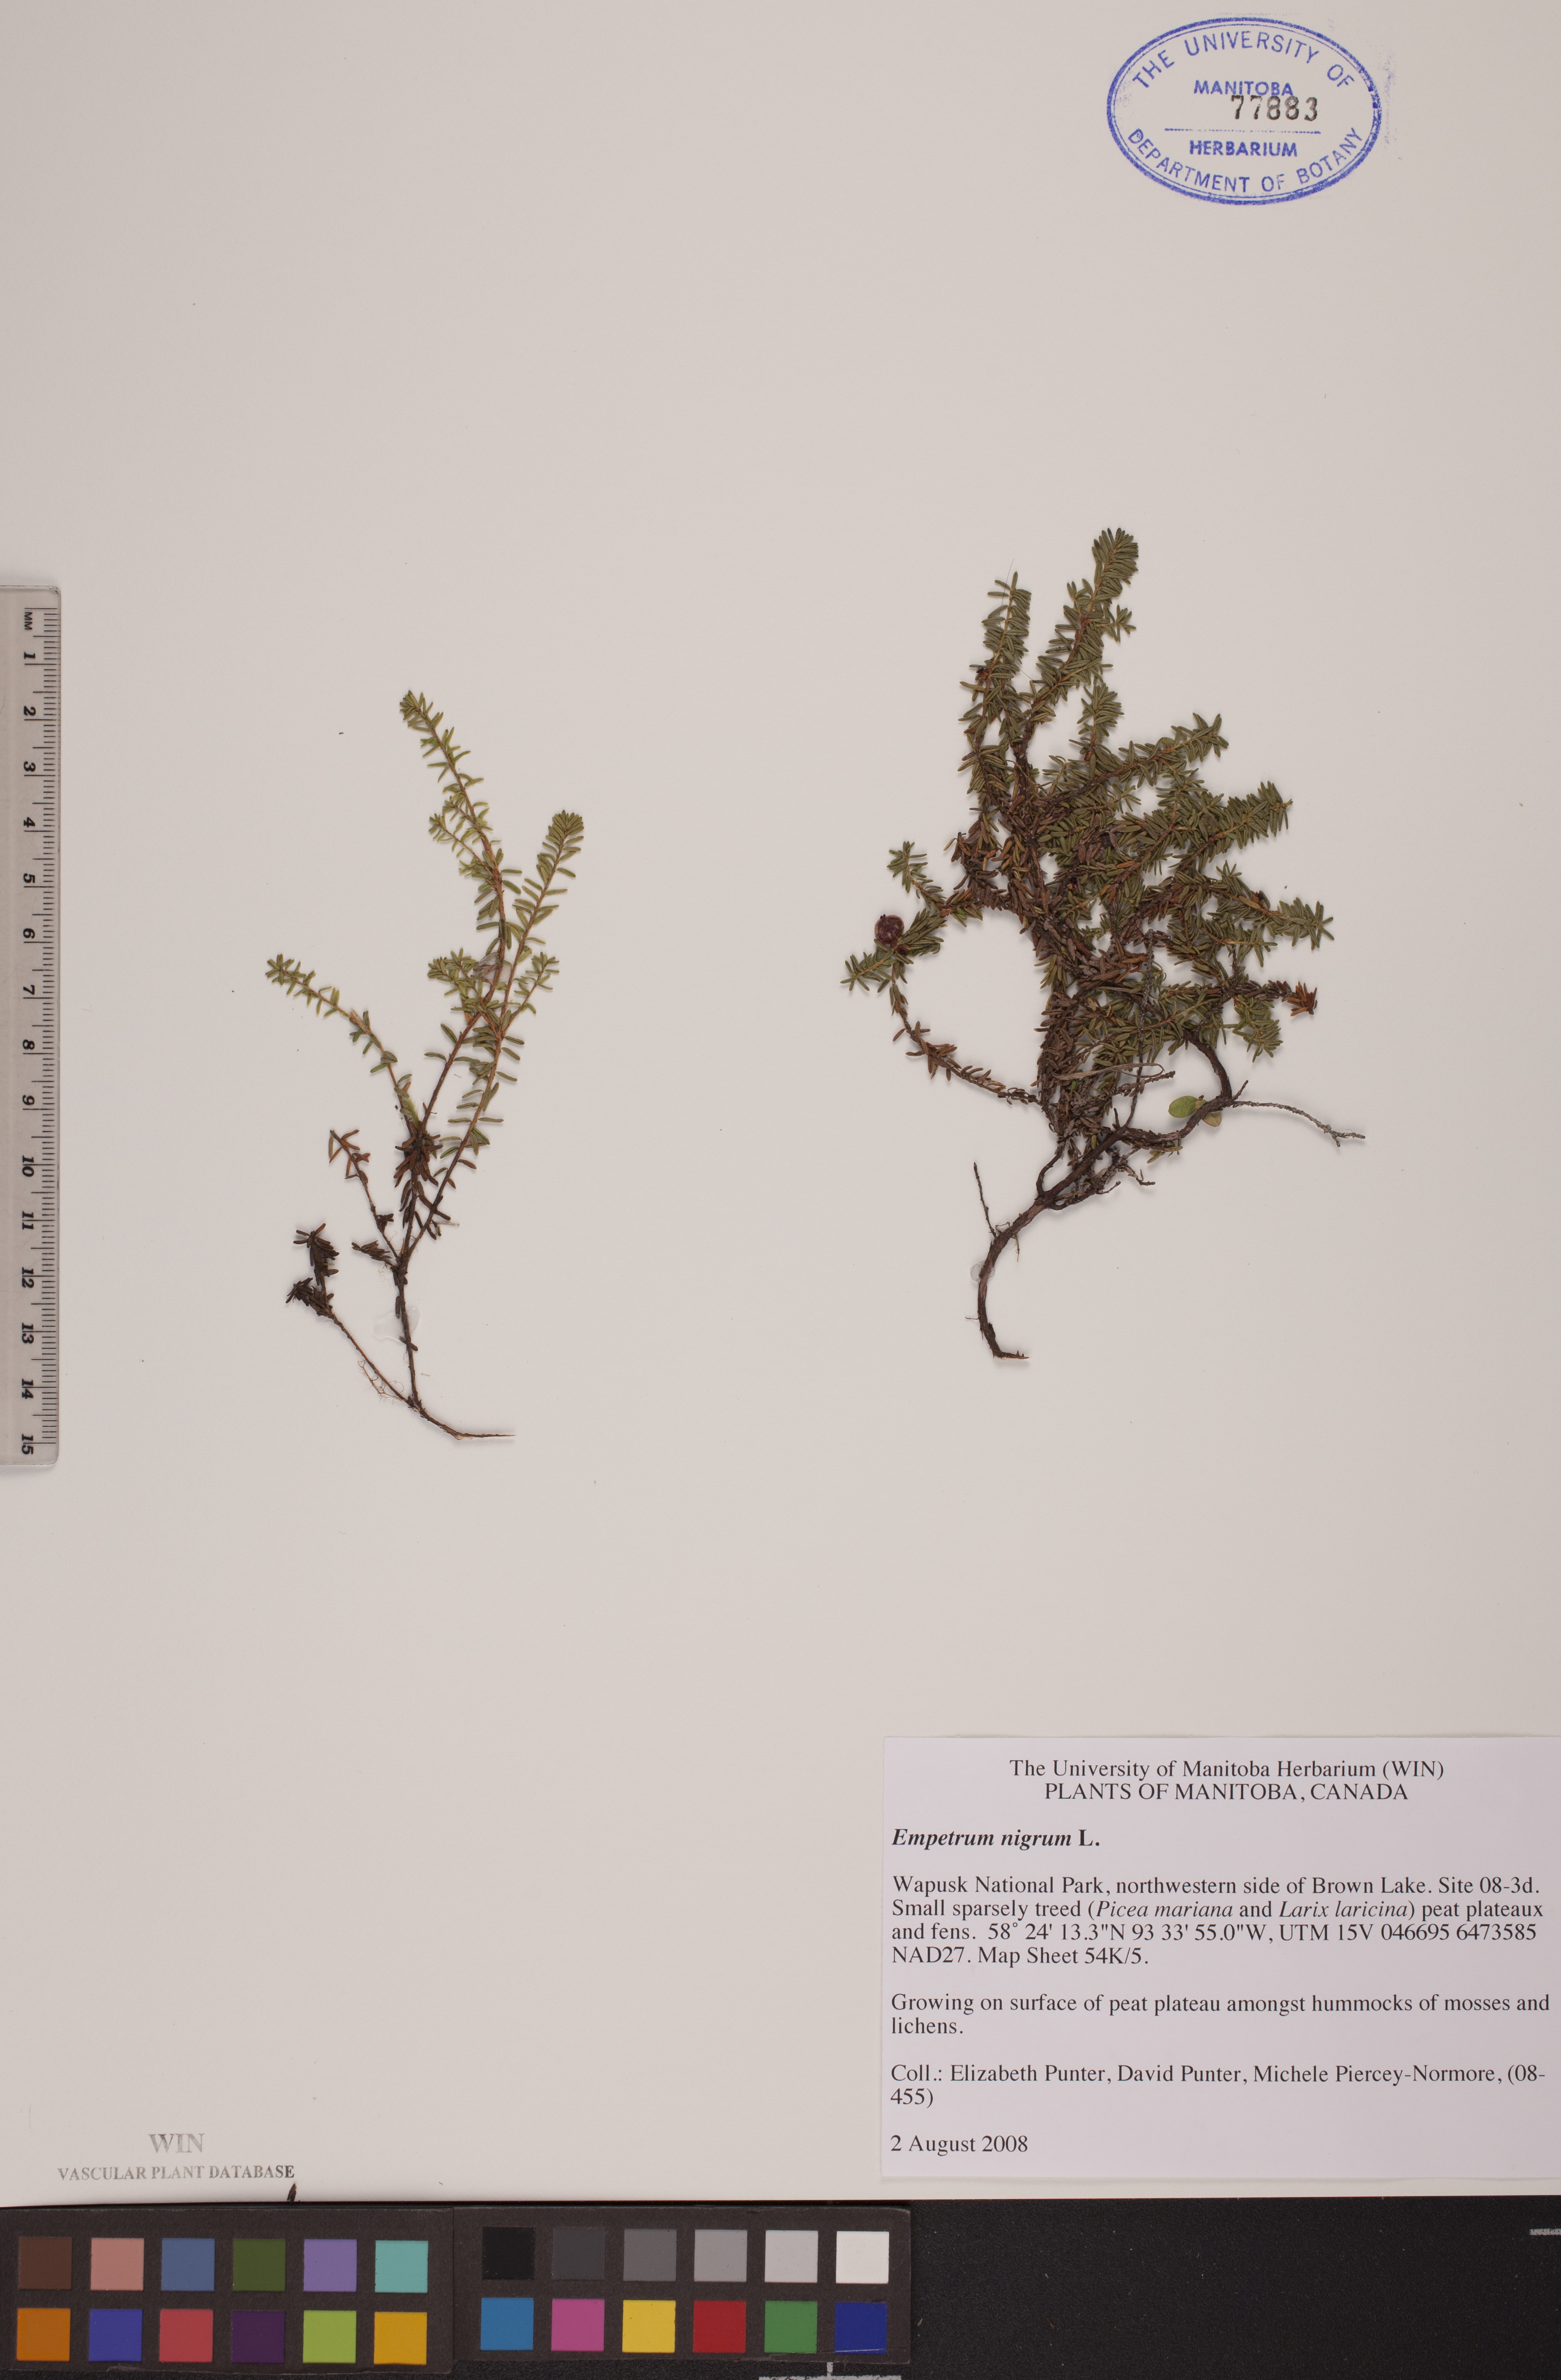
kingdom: Plantae
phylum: Tracheophyta
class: Magnoliopsida
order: Ericales
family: Ericaceae
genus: Empetrum
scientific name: Empetrum nigrum
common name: Black crowberry
